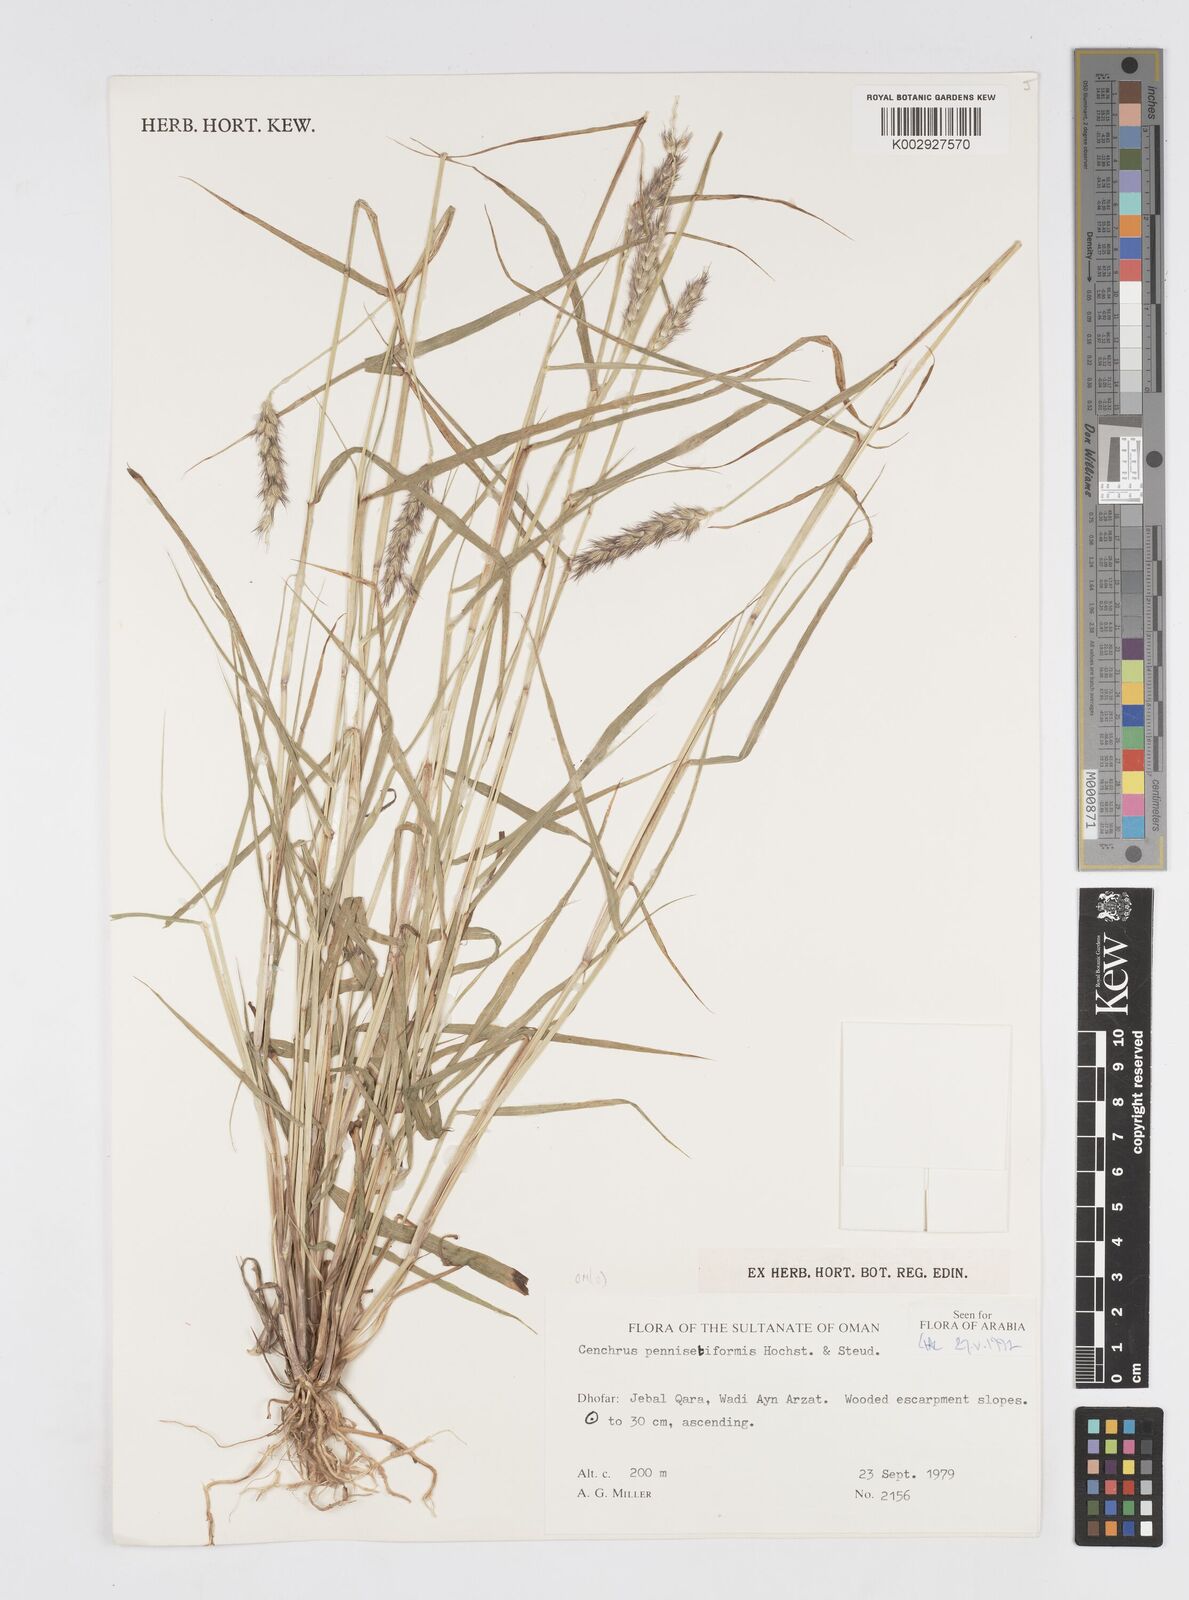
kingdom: Plantae
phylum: Tracheophyta
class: Liliopsida
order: Poales
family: Poaceae
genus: Cenchrus
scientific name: Cenchrus pennisetiformis
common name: Cloncurry
